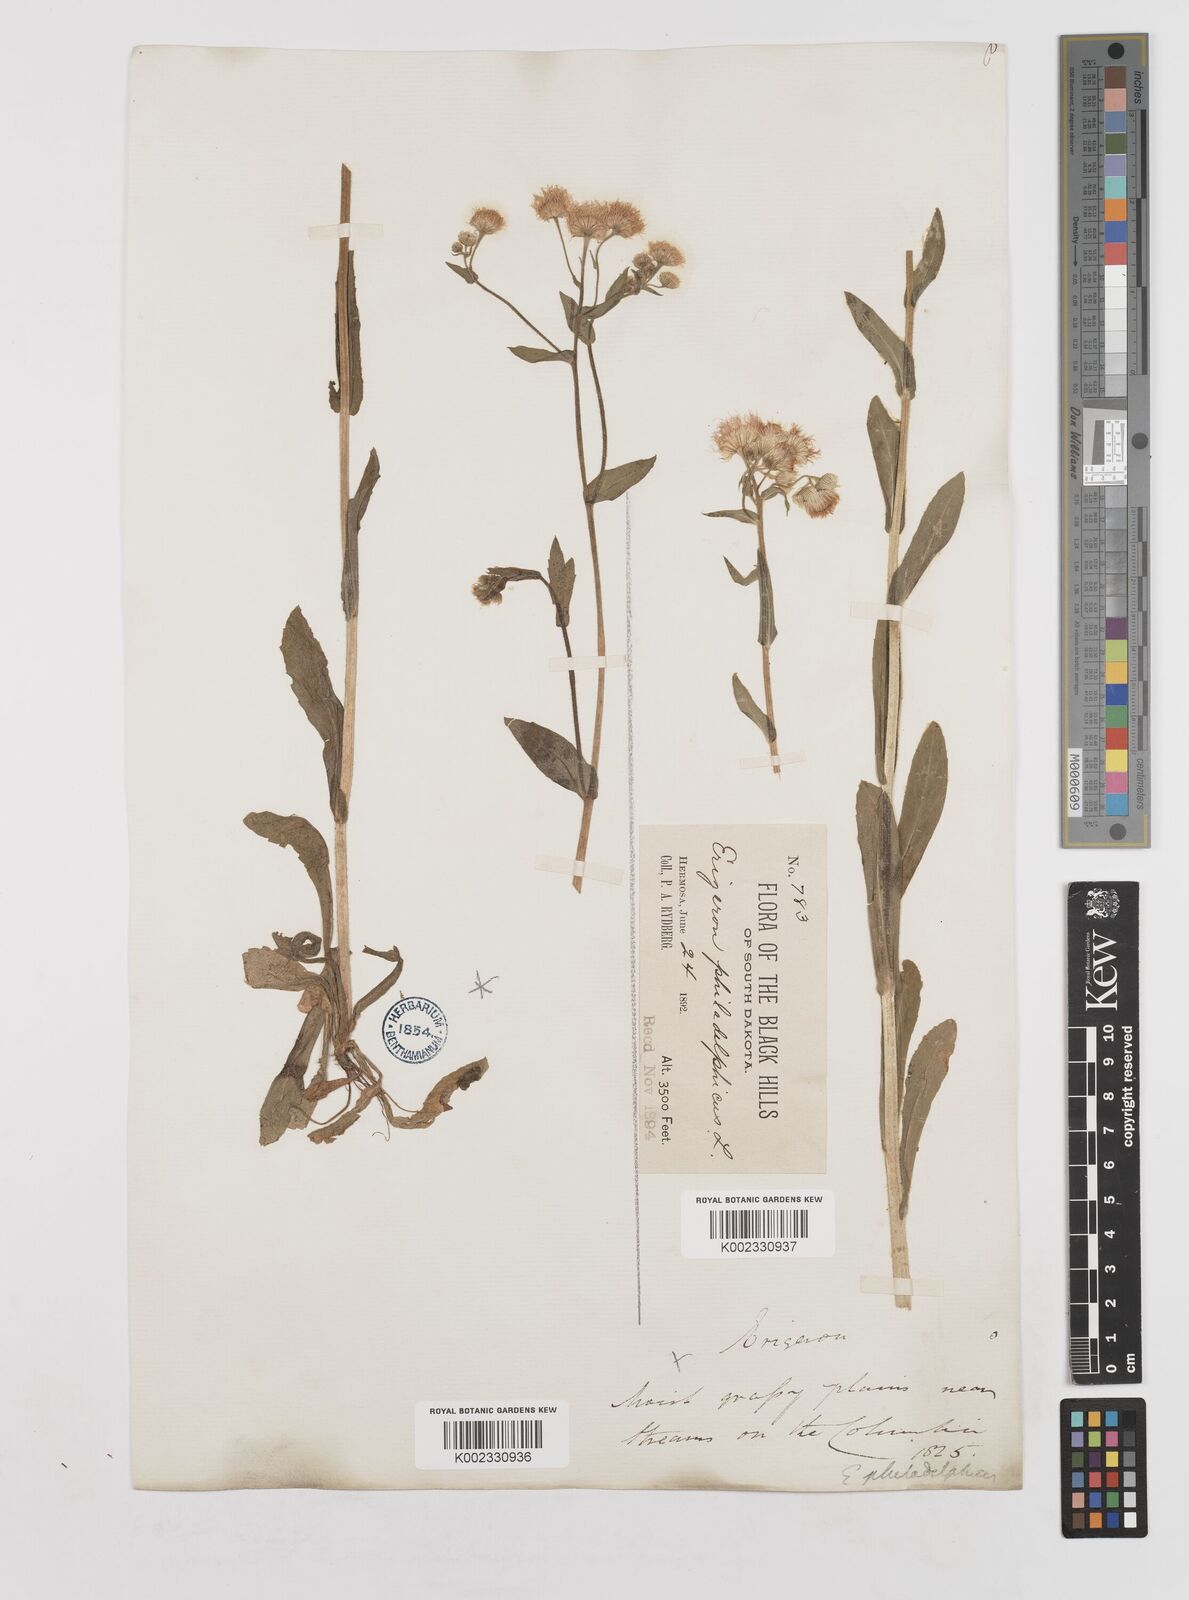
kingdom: Plantae
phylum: Tracheophyta
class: Magnoliopsida
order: Asterales
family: Asteraceae
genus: Erigeron
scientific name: Erigeron philadelphicus
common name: Robin's-plantain
